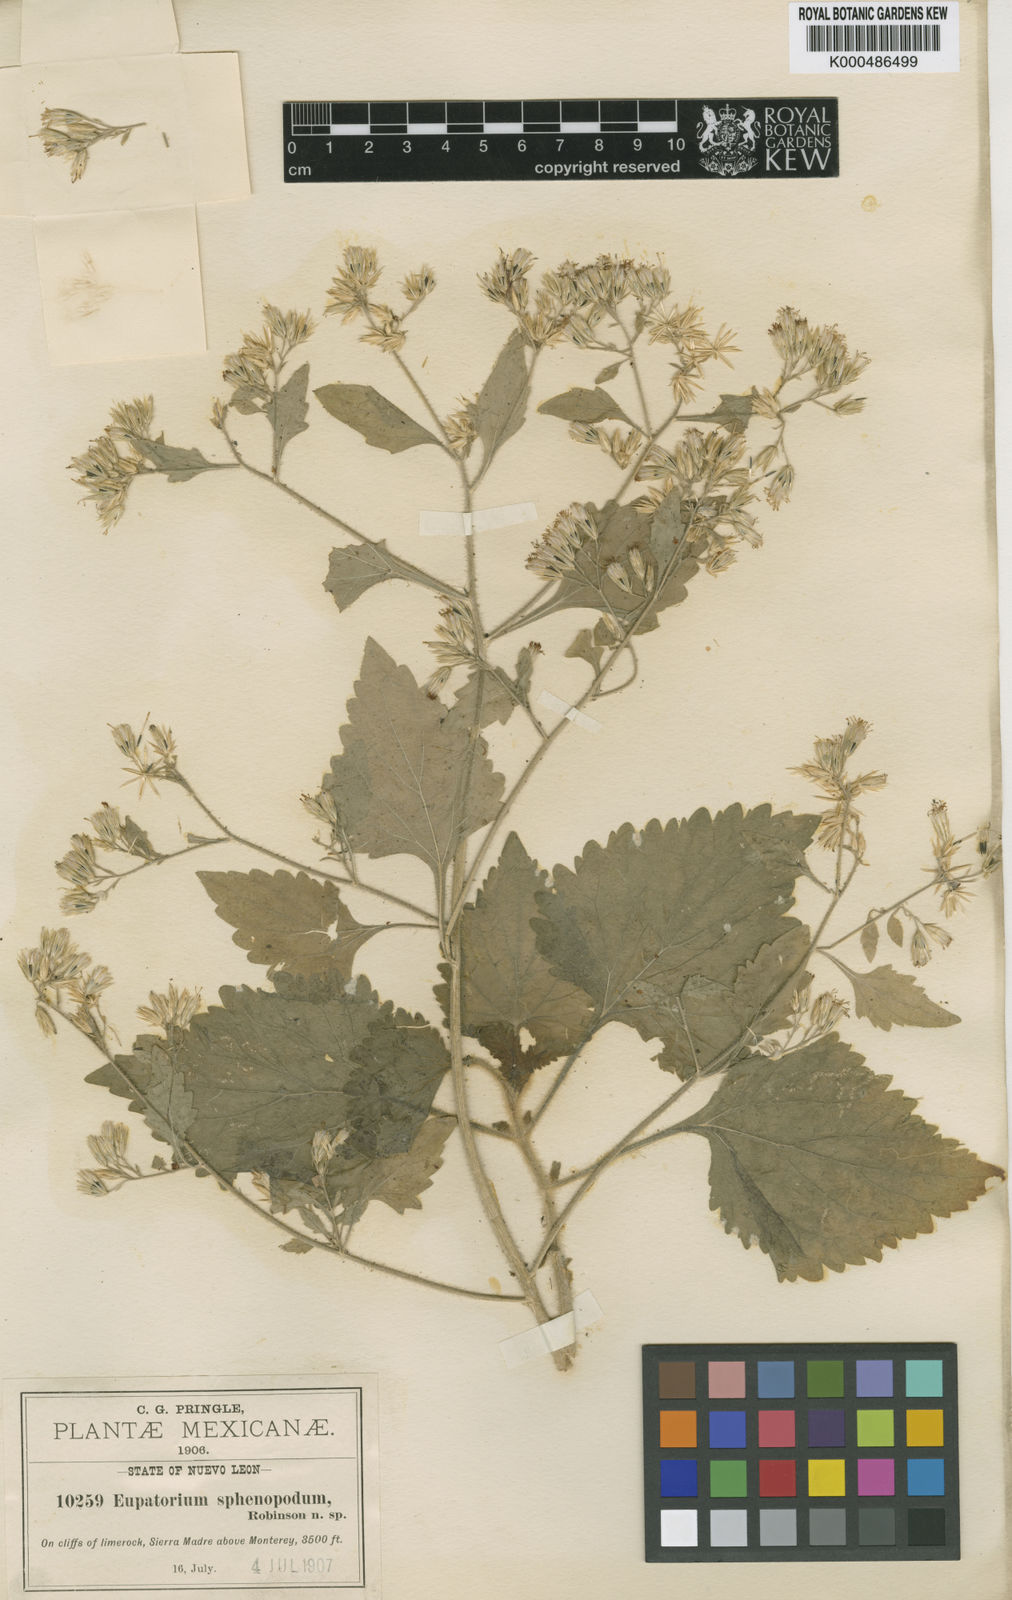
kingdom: Plantae
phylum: Tracheophyta
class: Magnoliopsida
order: Asterales
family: Asteraceae
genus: Flyriella
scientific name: Flyriella parryi
